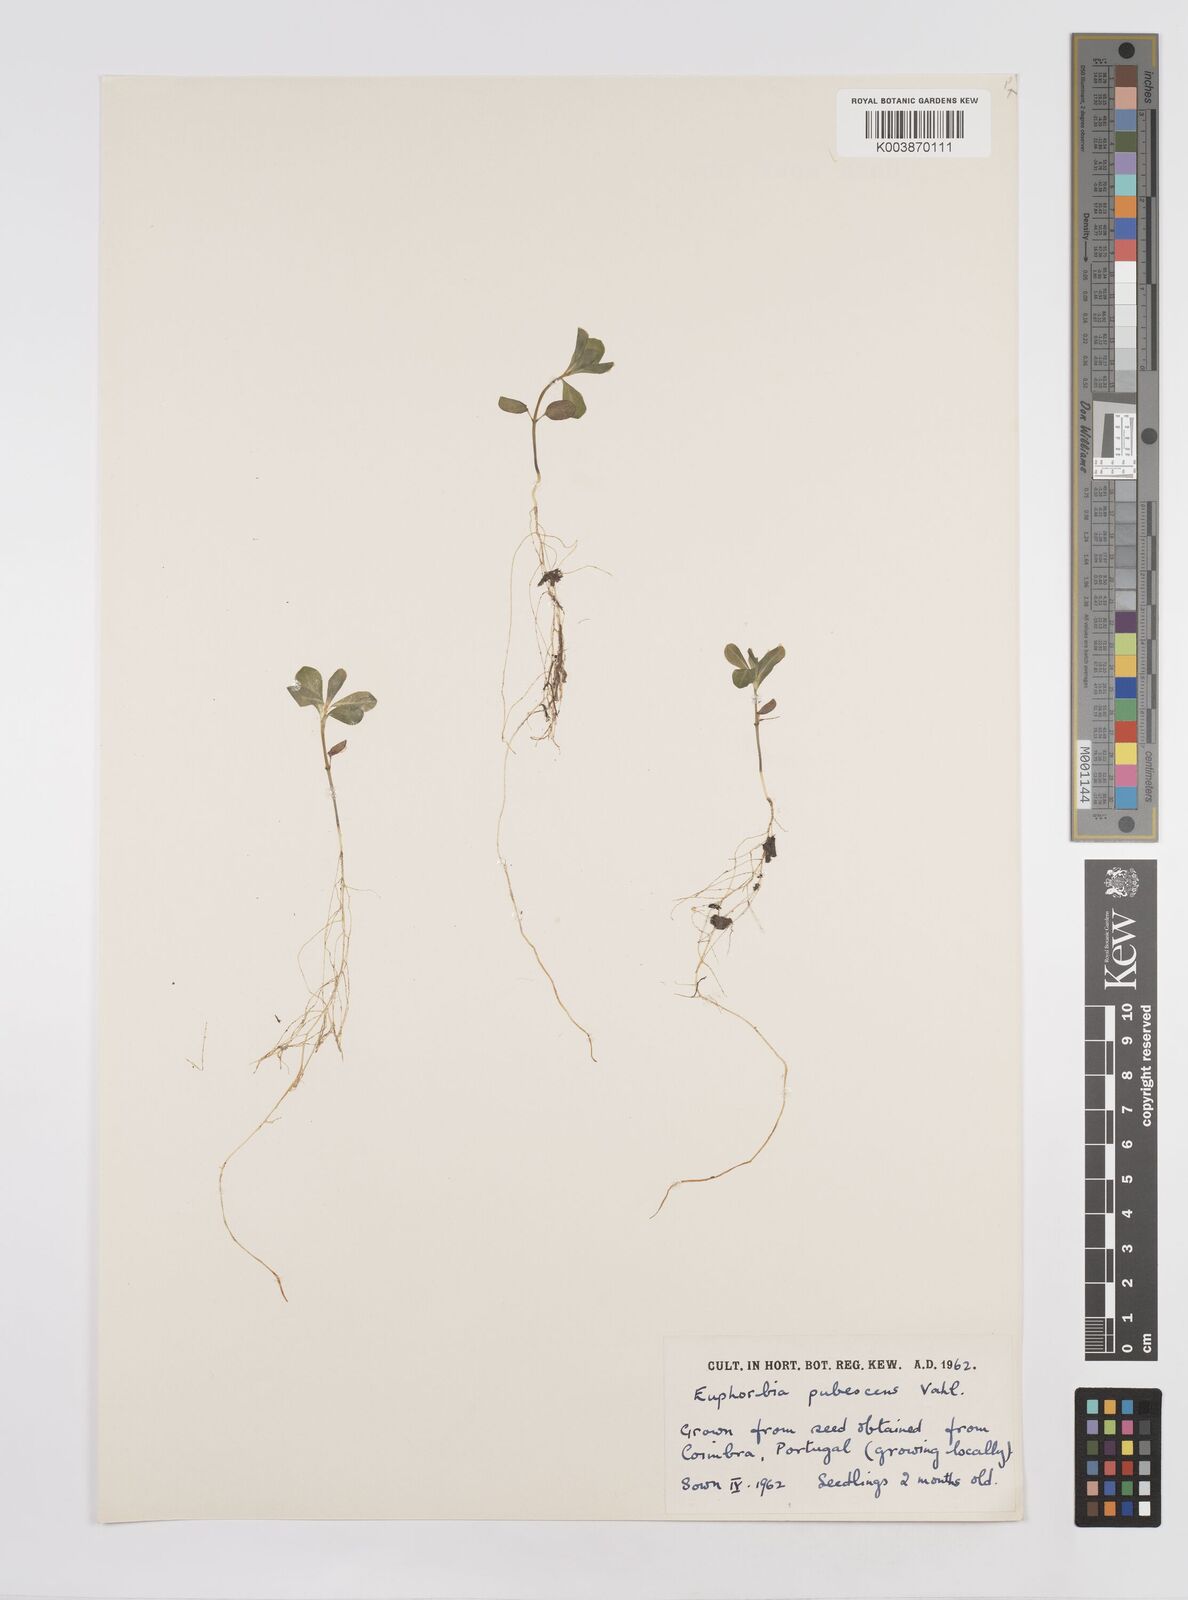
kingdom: Plantae
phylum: Tracheophyta
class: Magnoliopsida
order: Malpighiales
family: Euphorbiaceae
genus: Euphorbia
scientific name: Euphorbia
